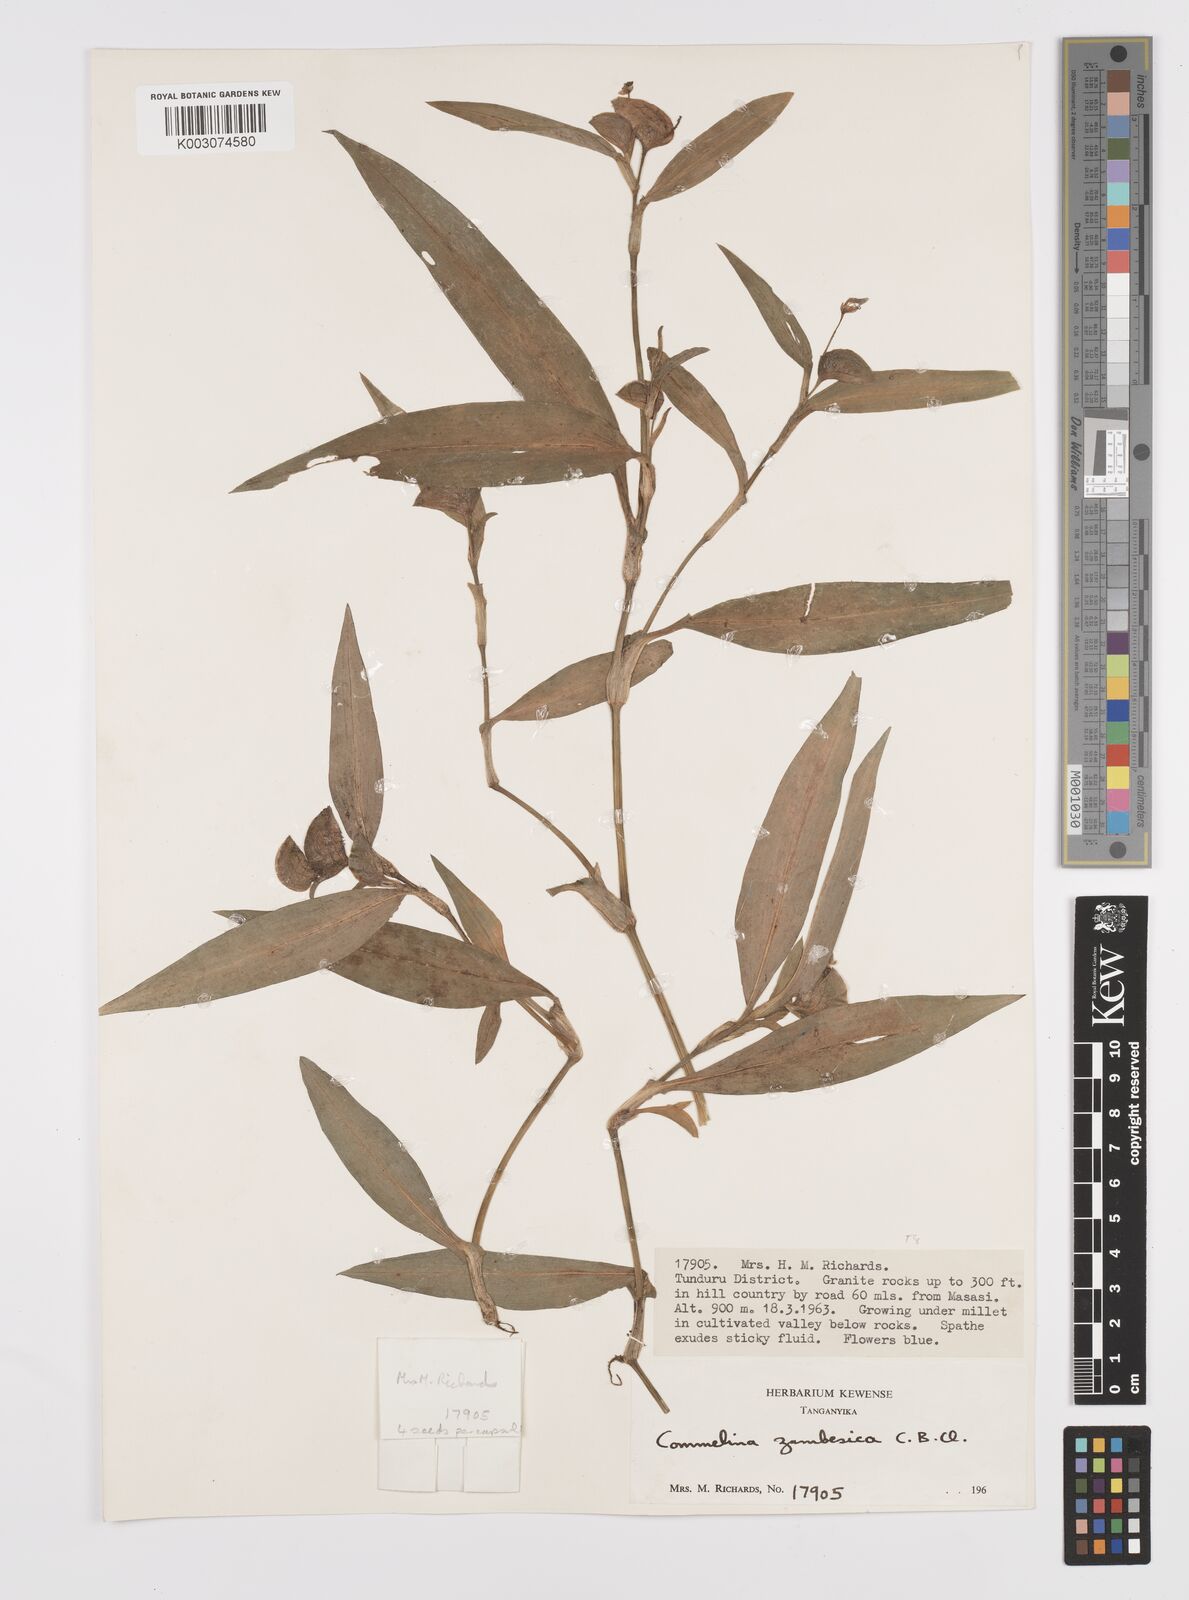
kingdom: Plantae
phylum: Tracheophyta
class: Liliopsida
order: Commelinales
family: Commelinaceae
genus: Commelina
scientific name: Commelina zambesica
